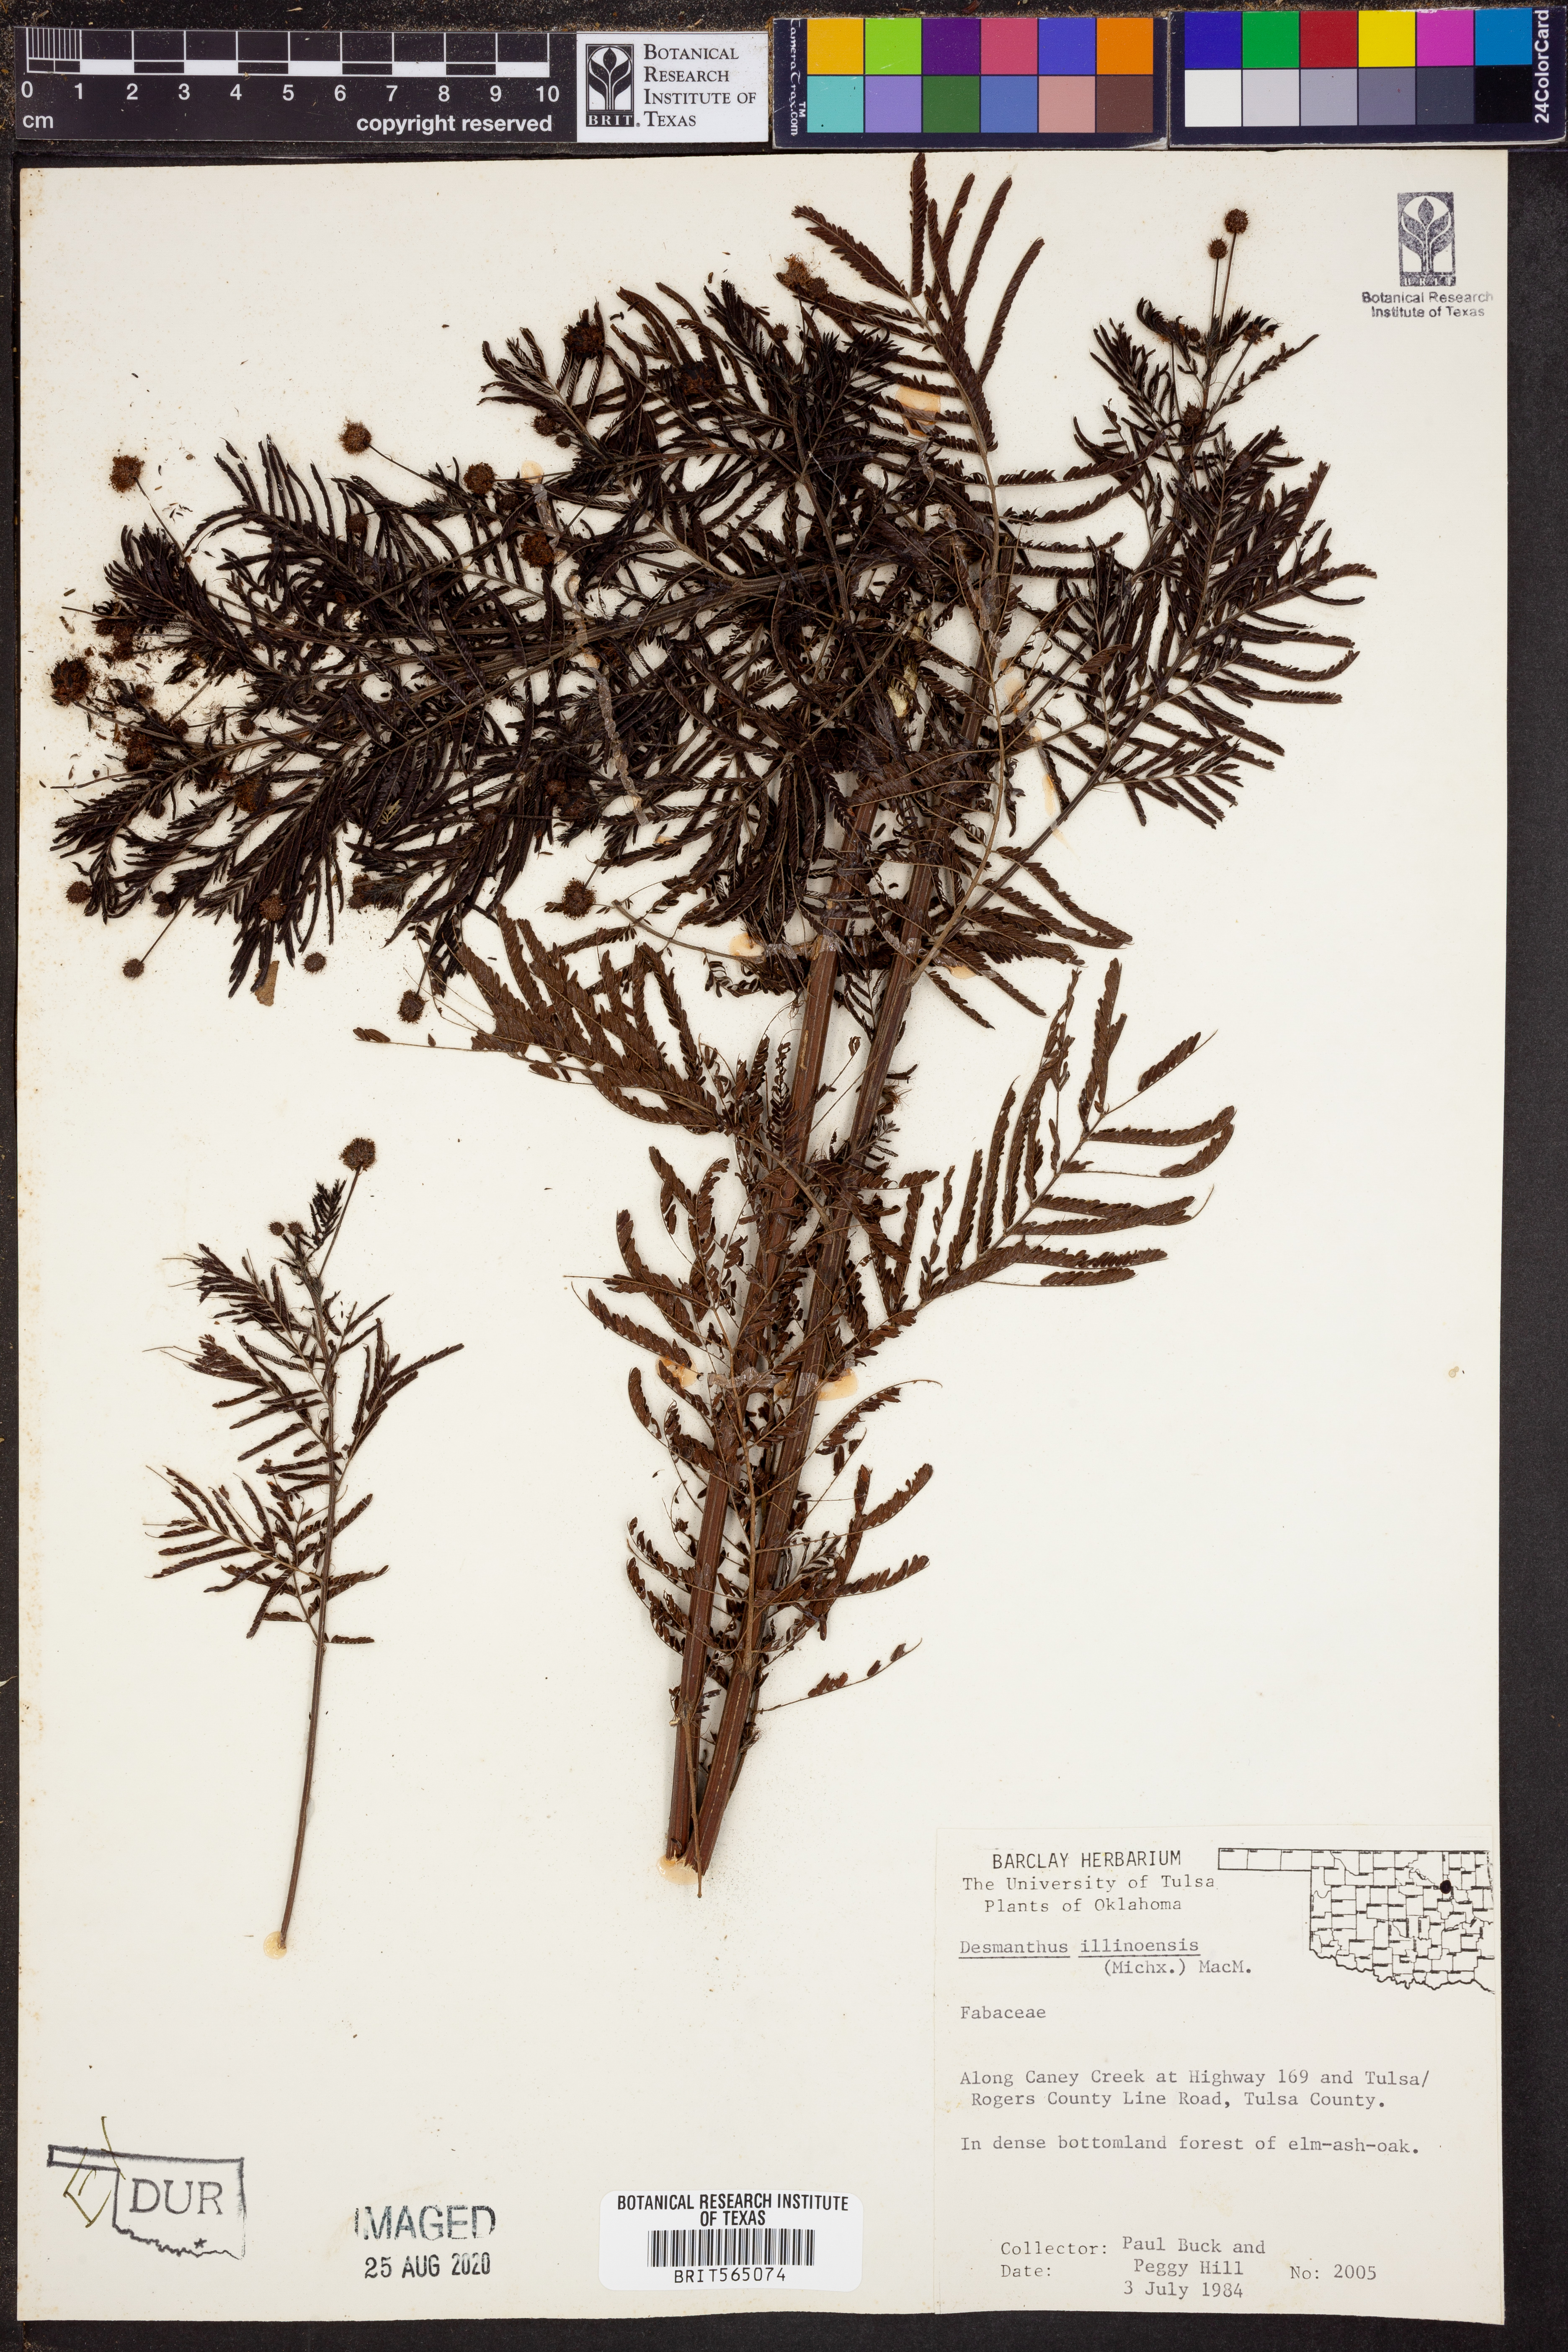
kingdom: Plantae
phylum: Tracheophyta
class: Magnoliopsida
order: Fabales
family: Fabaceae
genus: Desmanthus
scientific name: Desmanthus illinoensis
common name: Illinois bundle-flower
